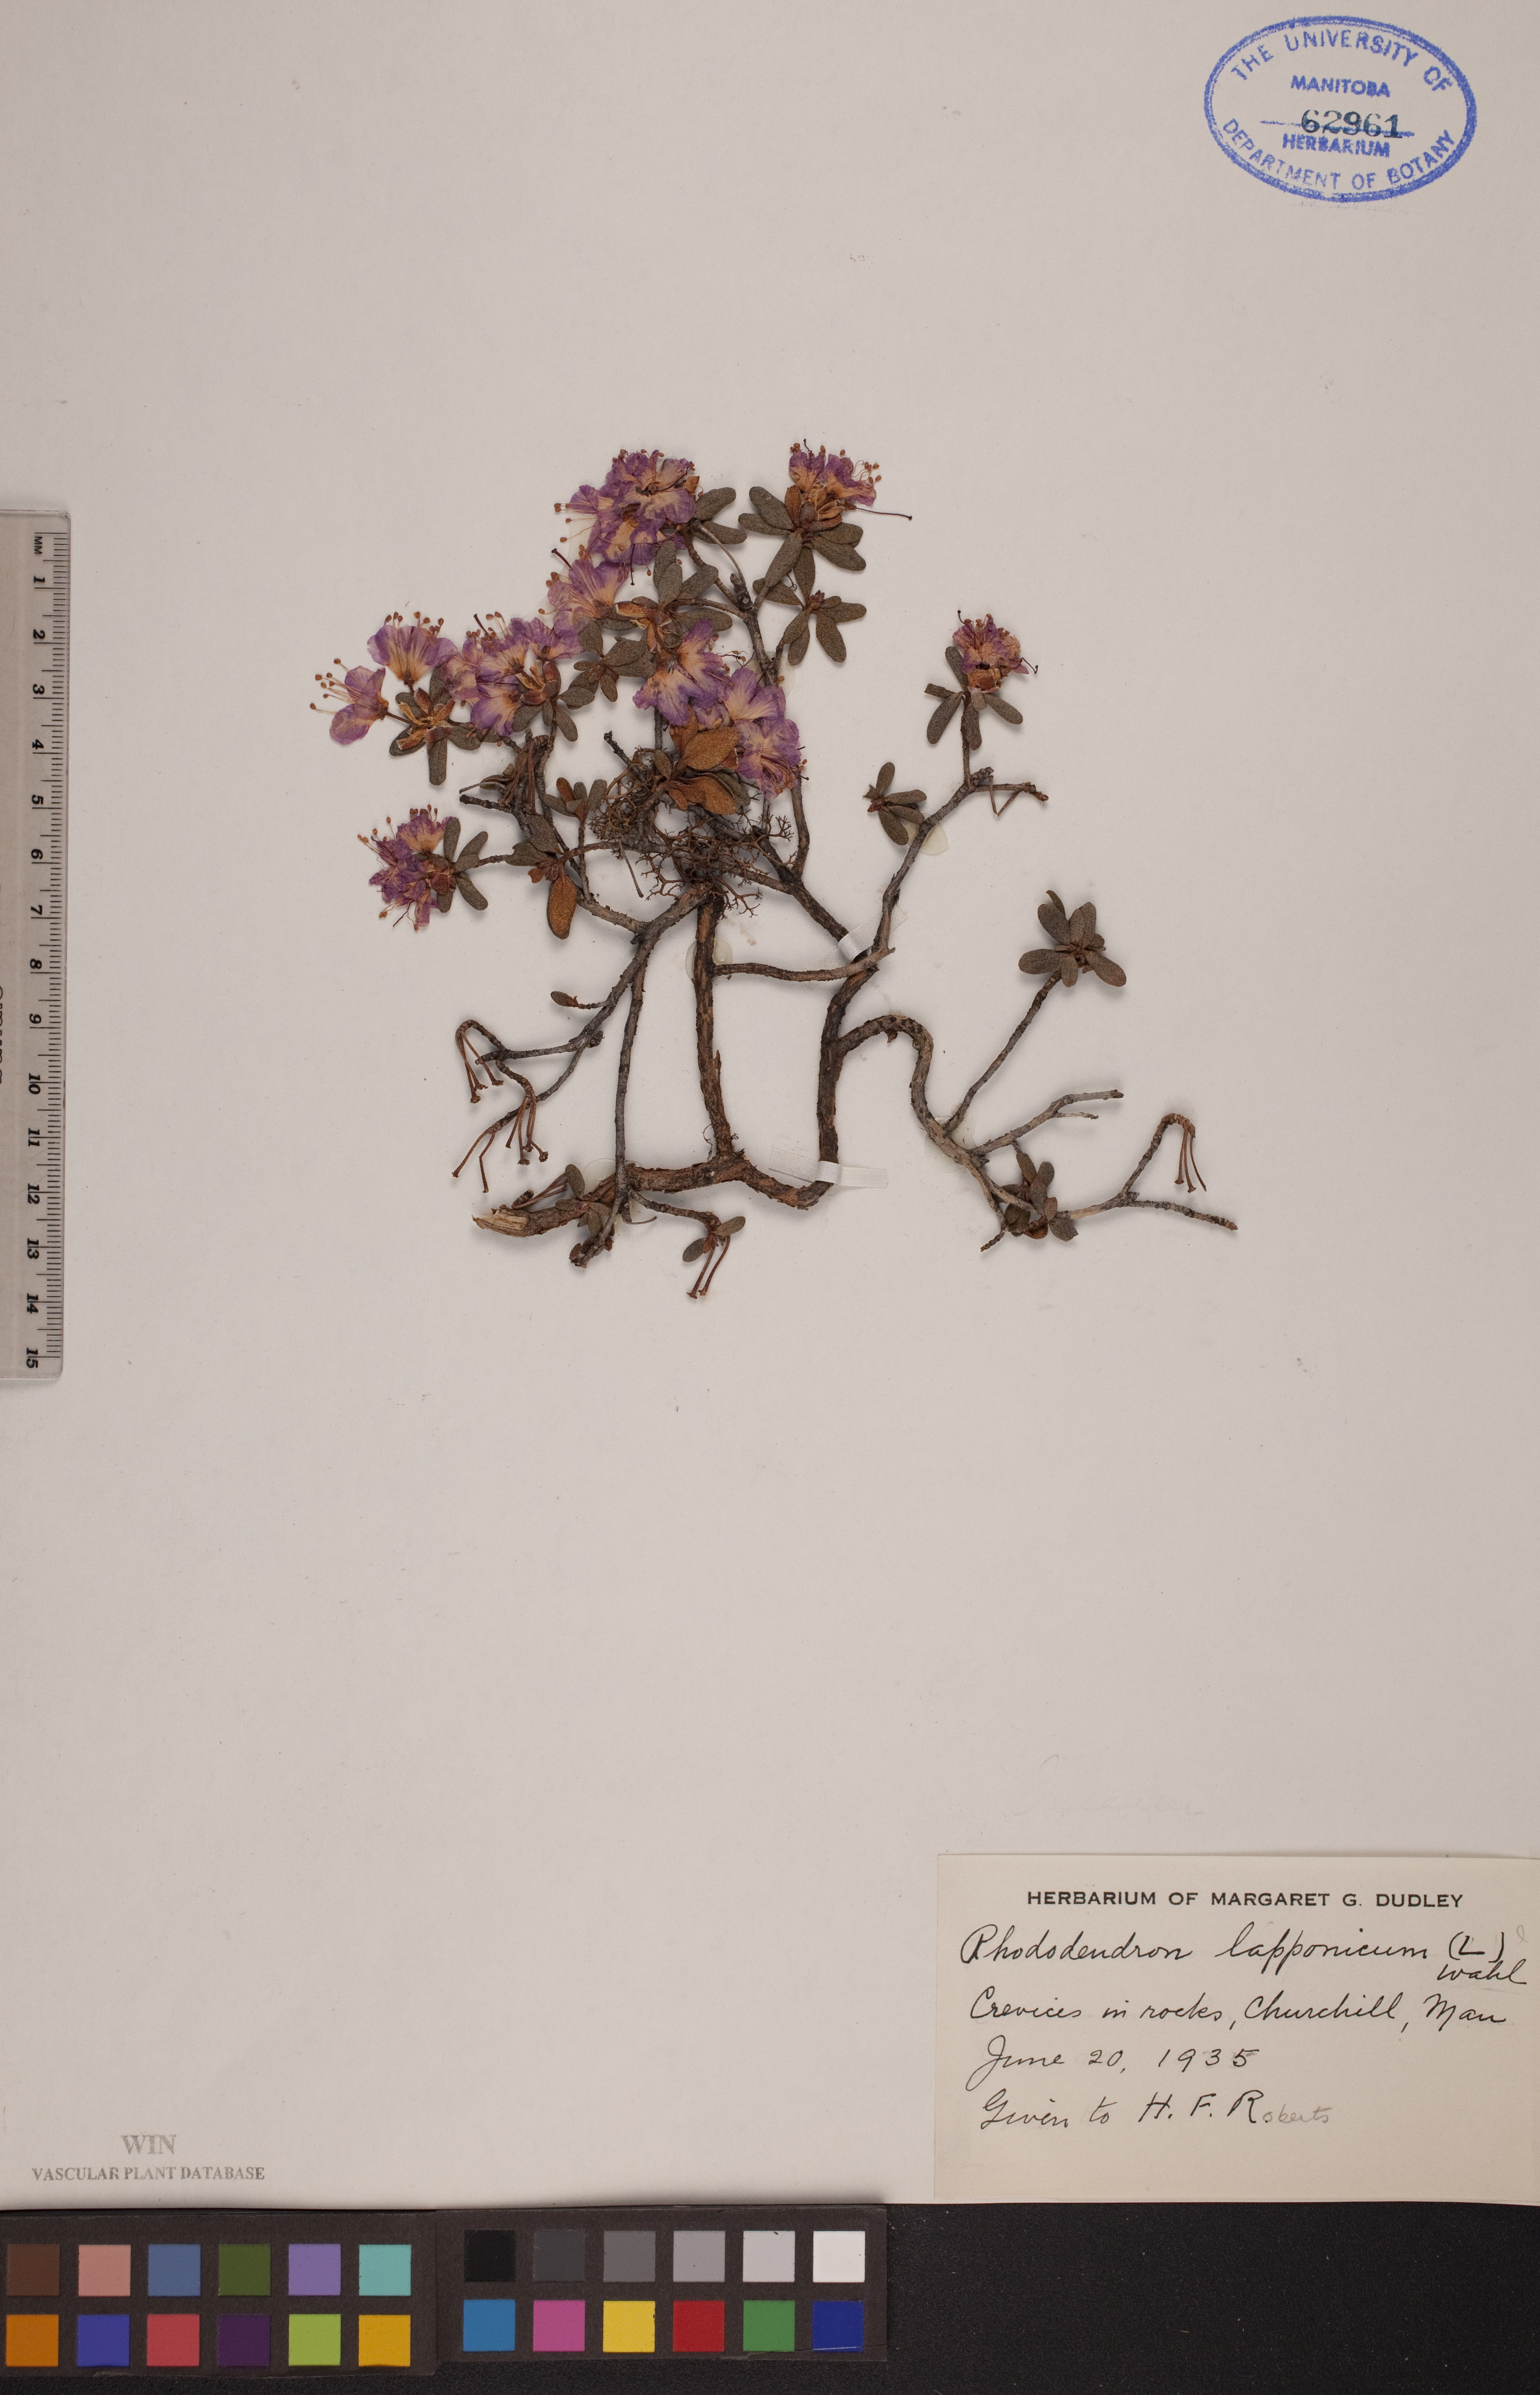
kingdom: Plantae
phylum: Tracheophyta
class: Magnoliopsida
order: Ericales
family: Ericaceae
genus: Rhododendron
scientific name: Rhododendron lapponicum
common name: Lapland rhododendron
